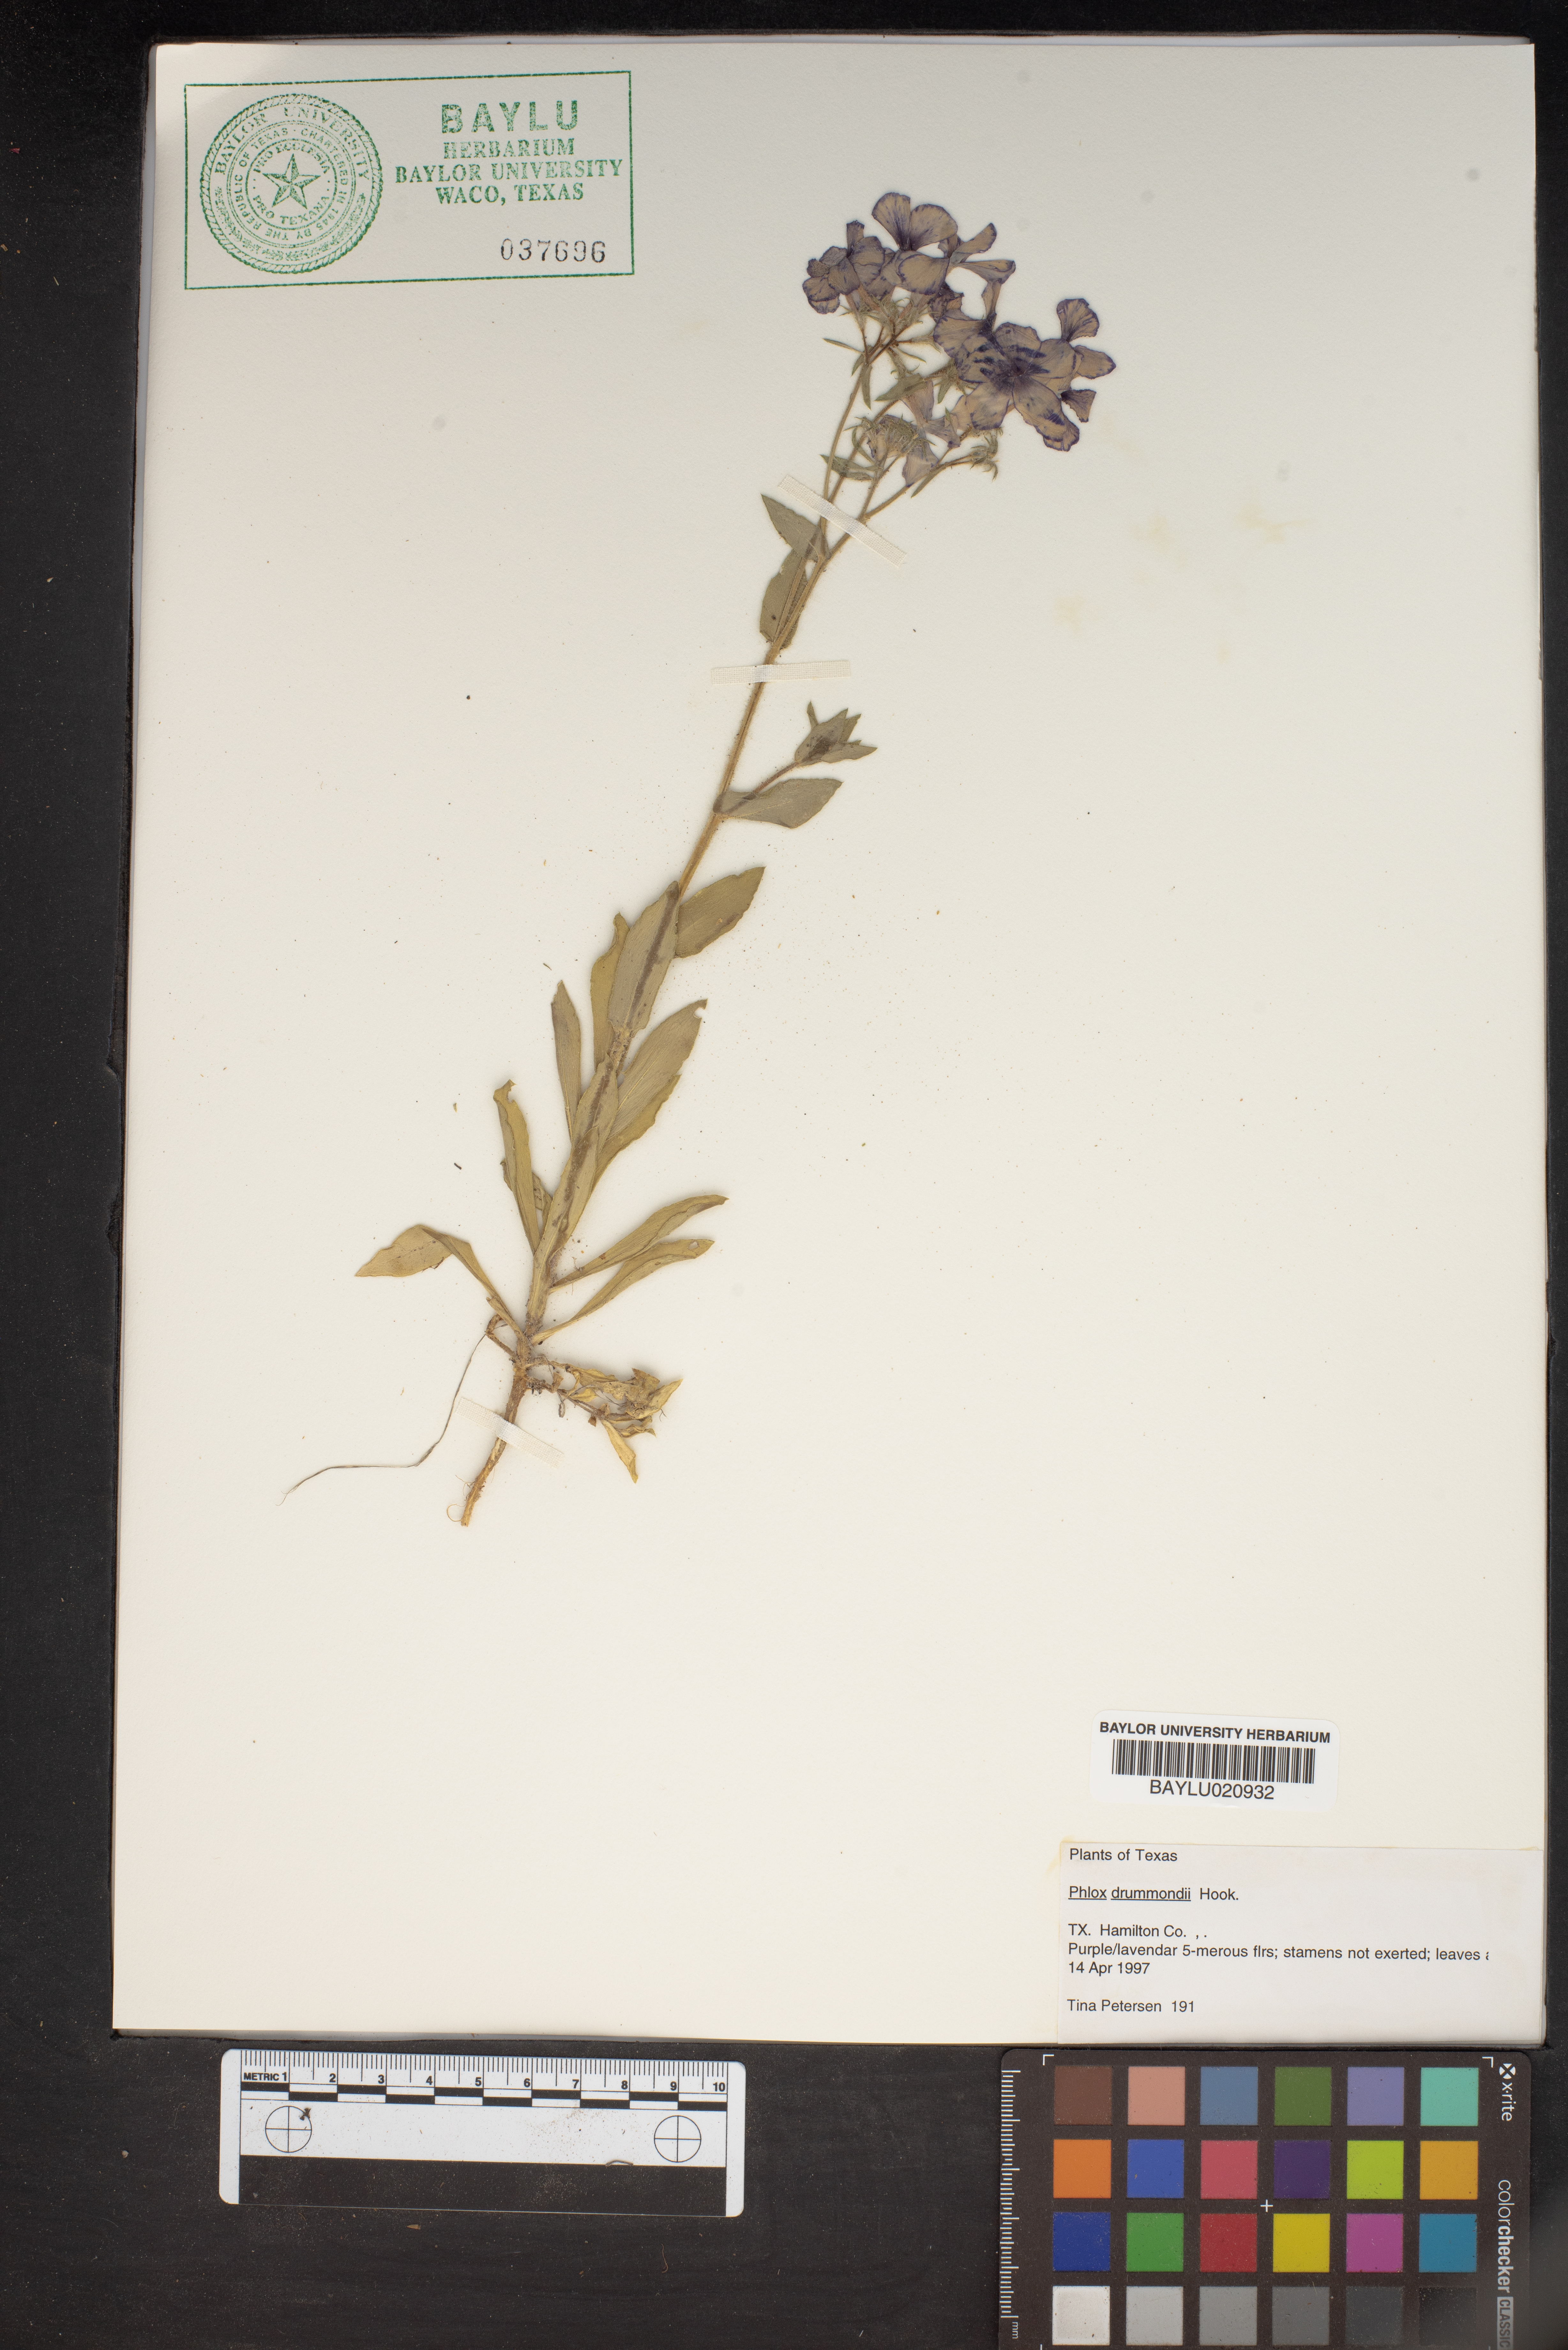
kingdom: Plantae
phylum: Tracheophyta
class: Magnoliopsida
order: Ericales
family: Polemoniaceae
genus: Phlox
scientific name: Phlox drummondii
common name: Drummond's phlox
